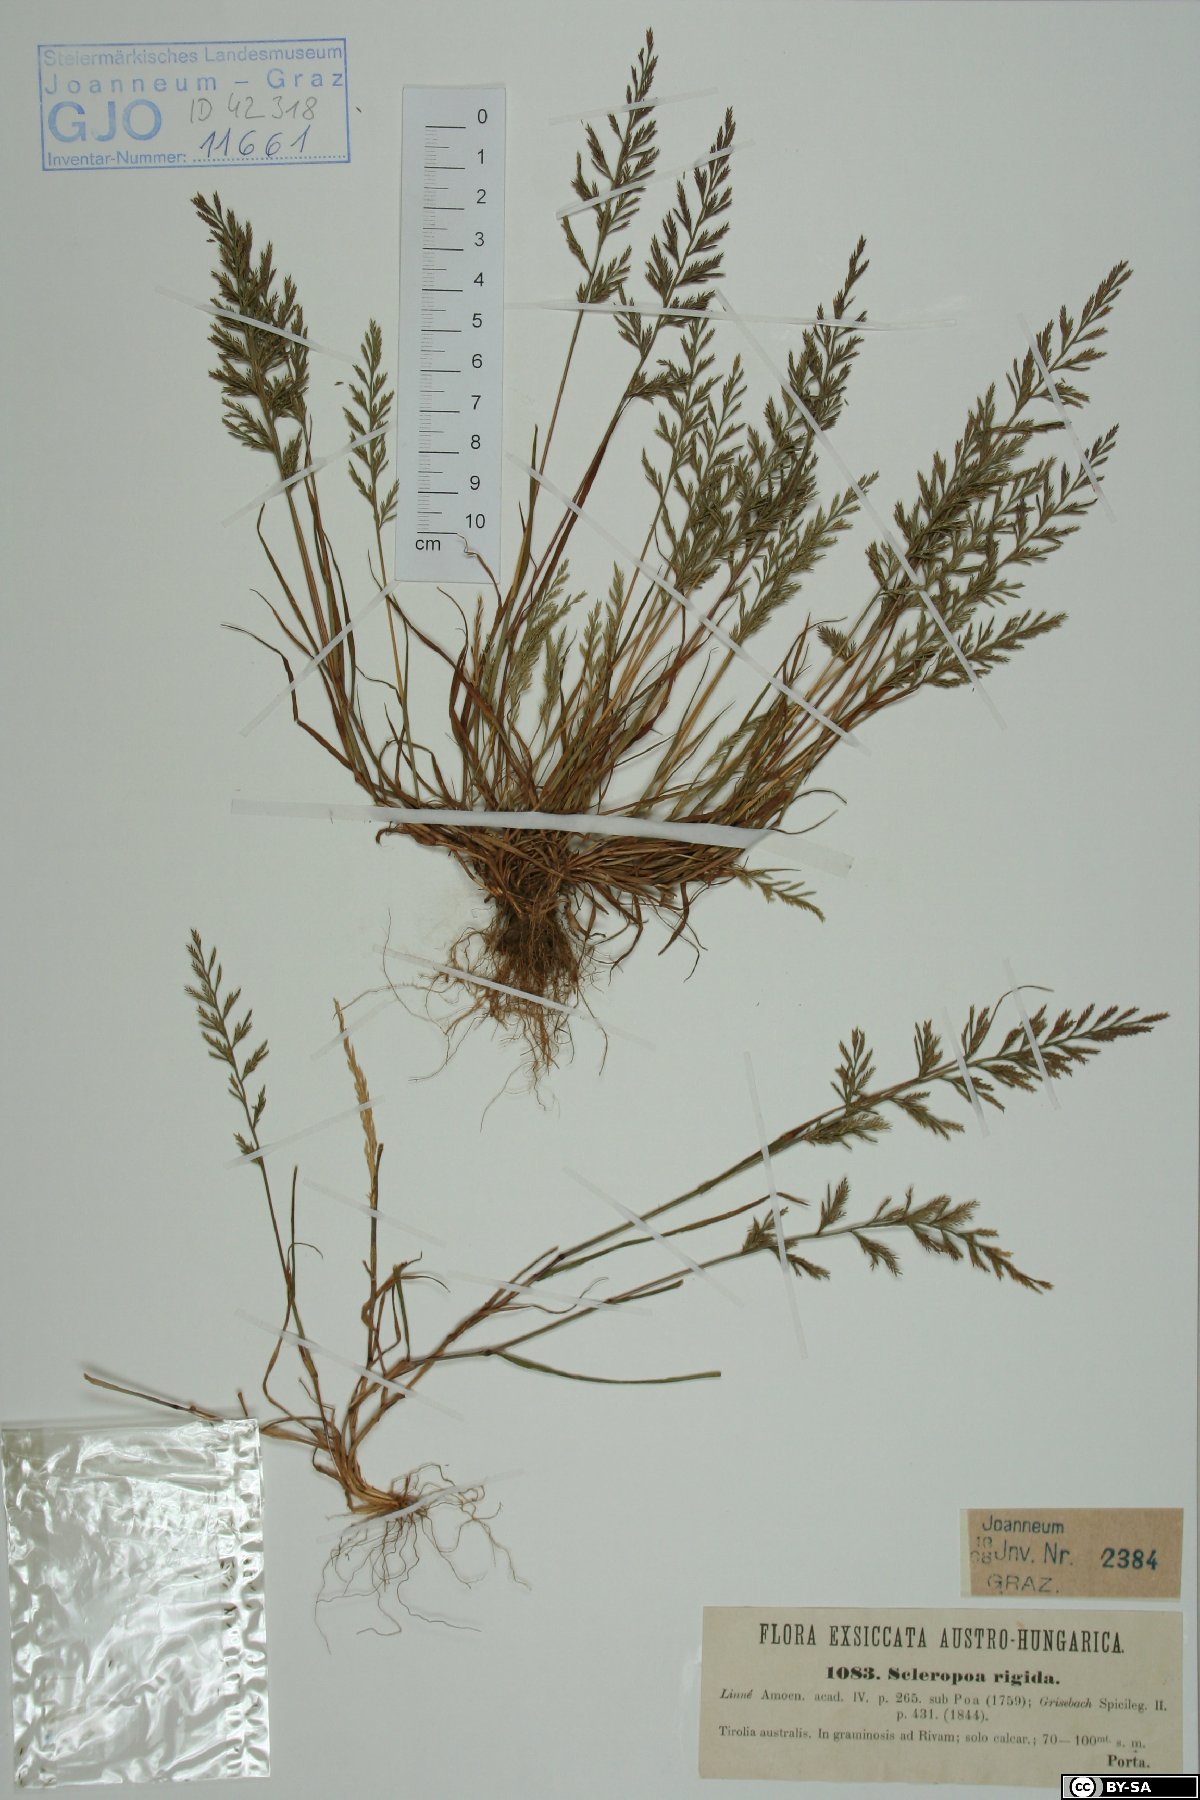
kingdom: Plantae
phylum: Tracheophyta
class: Liliopsida
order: Poales
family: Poaceae
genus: Catapodium
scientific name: Catapodium rigidum
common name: Fern-grass
